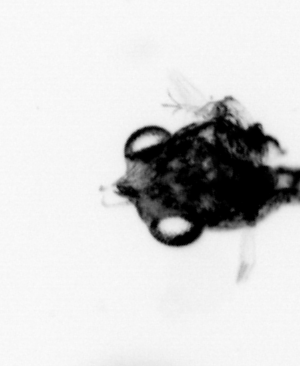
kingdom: Animalia
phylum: Arthropoda
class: Malacostraca
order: Decapoda
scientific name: Decapoda
